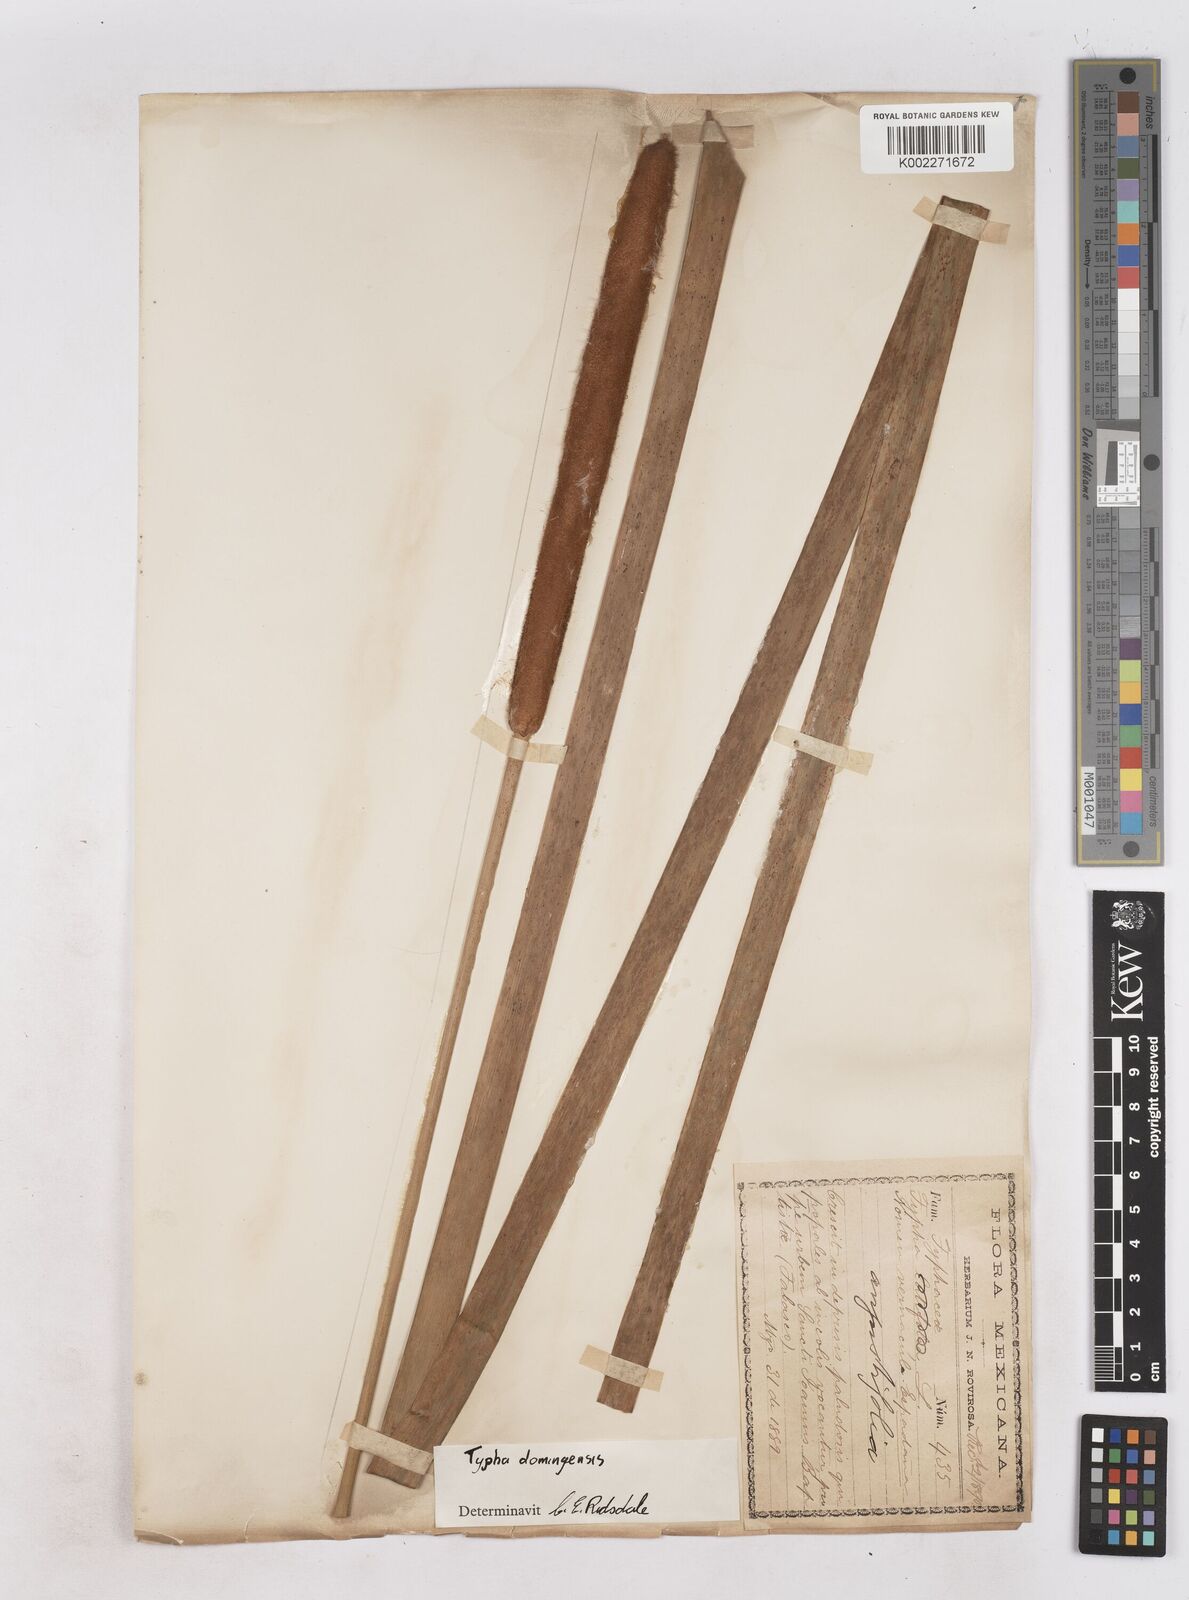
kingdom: Plantae
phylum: Tracheophyta
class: Liliopsida
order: Poales
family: Typhaceae
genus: Typha
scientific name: Typha domingensis
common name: Southern cattail
